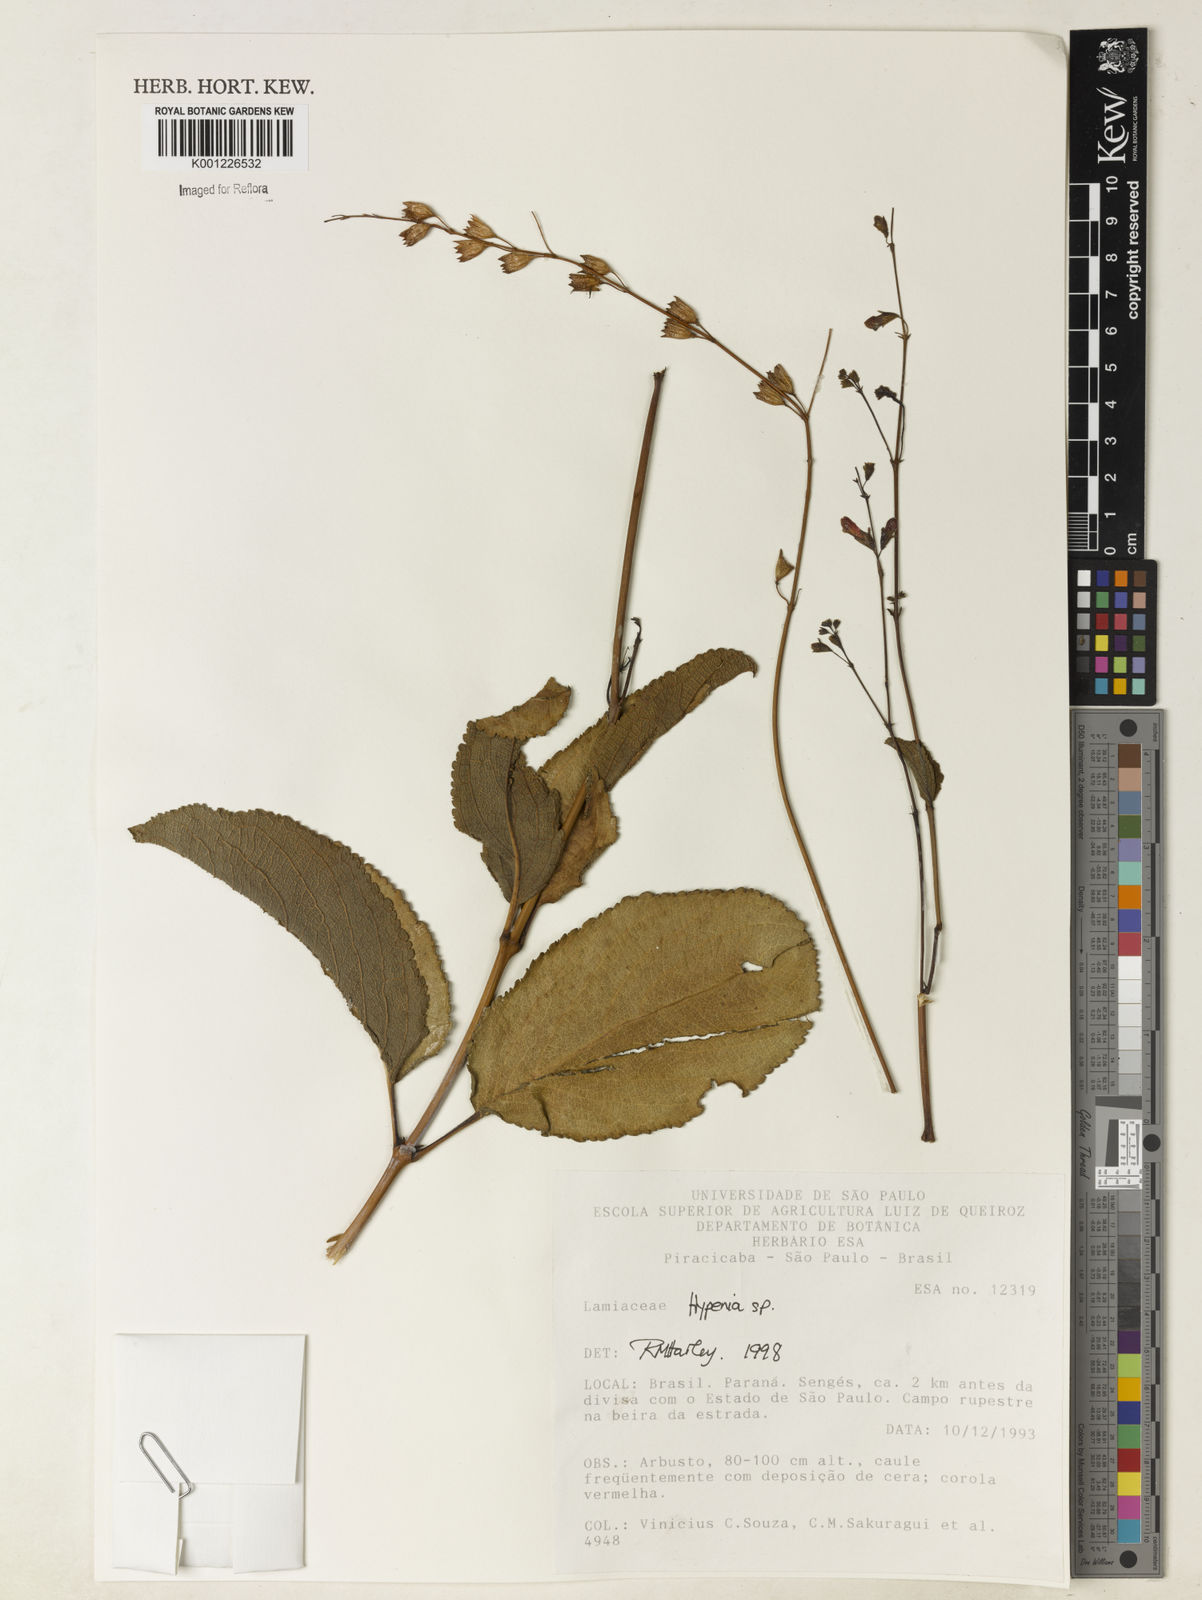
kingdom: Plantae
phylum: Tracheophyta
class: Magnoliopsida
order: Lamiales
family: Lamiaceae
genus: Hypenia
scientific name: Hypenia
